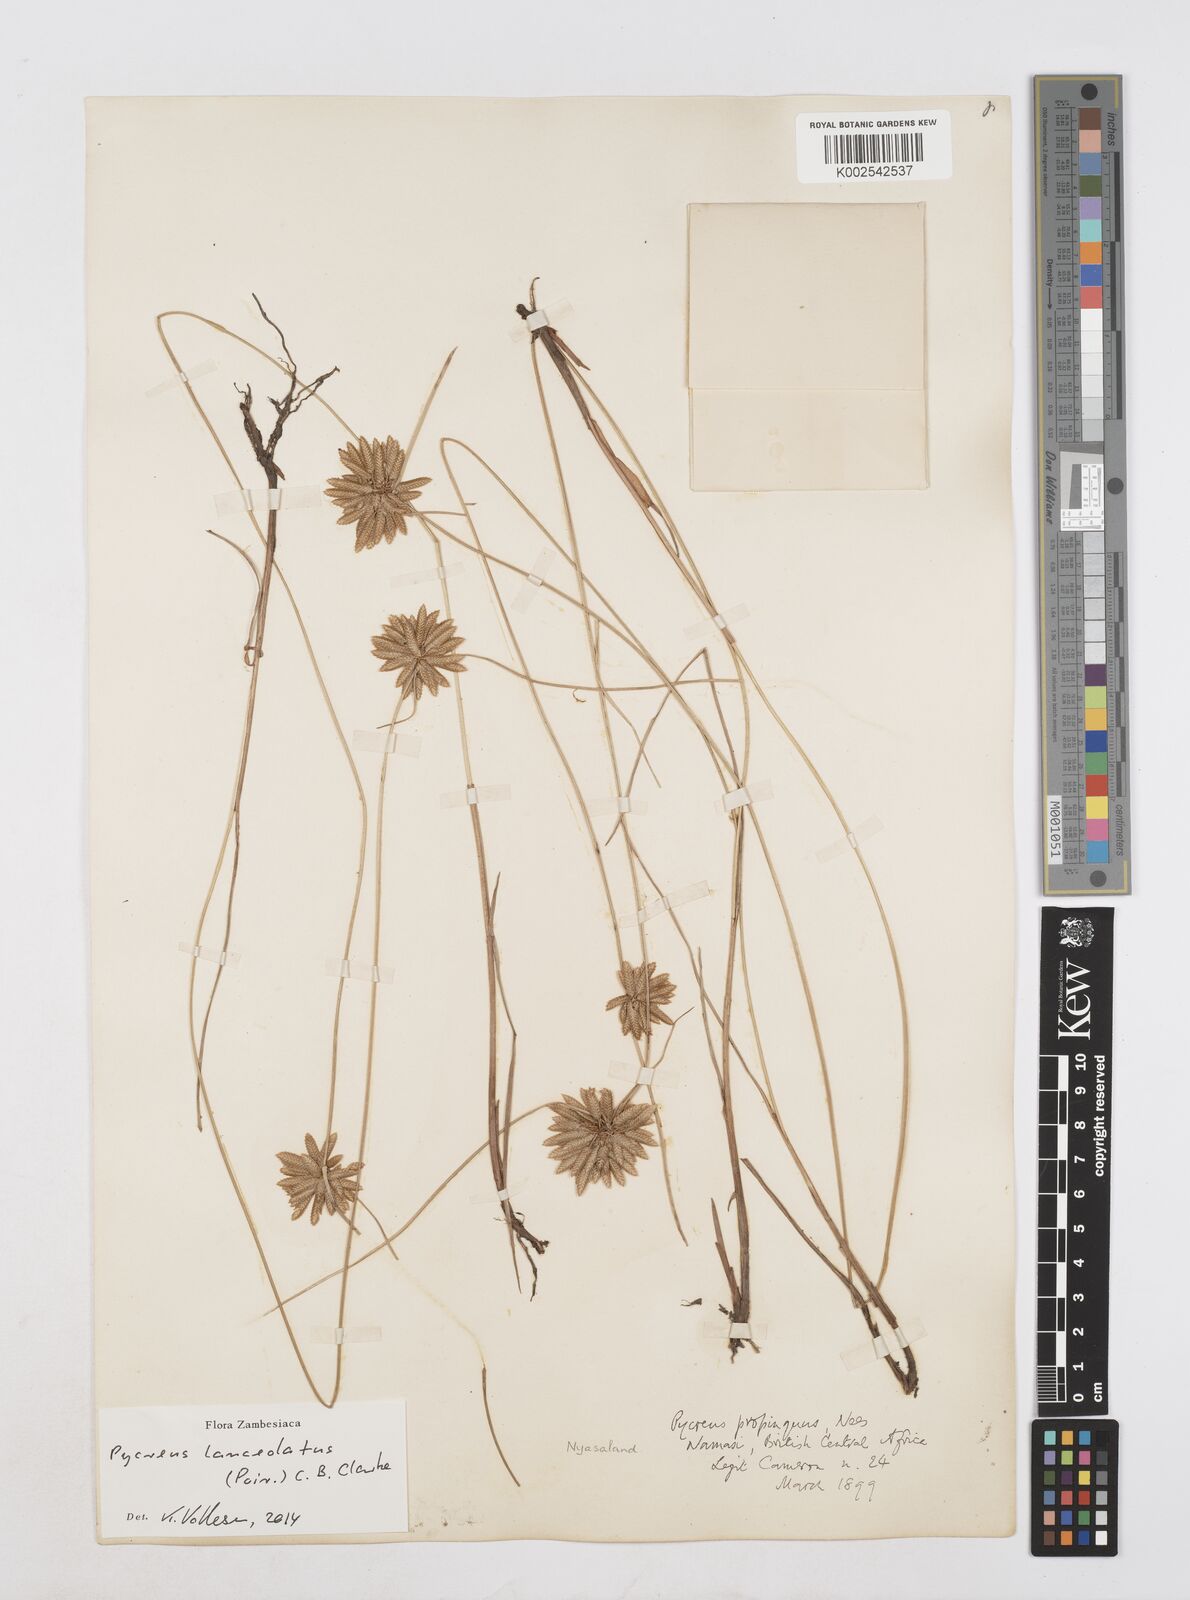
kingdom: Plantae
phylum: Tracheophyta
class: Liliopsida
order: Poales
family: Cyperaceae
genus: Cyperus
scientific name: Cyperus
